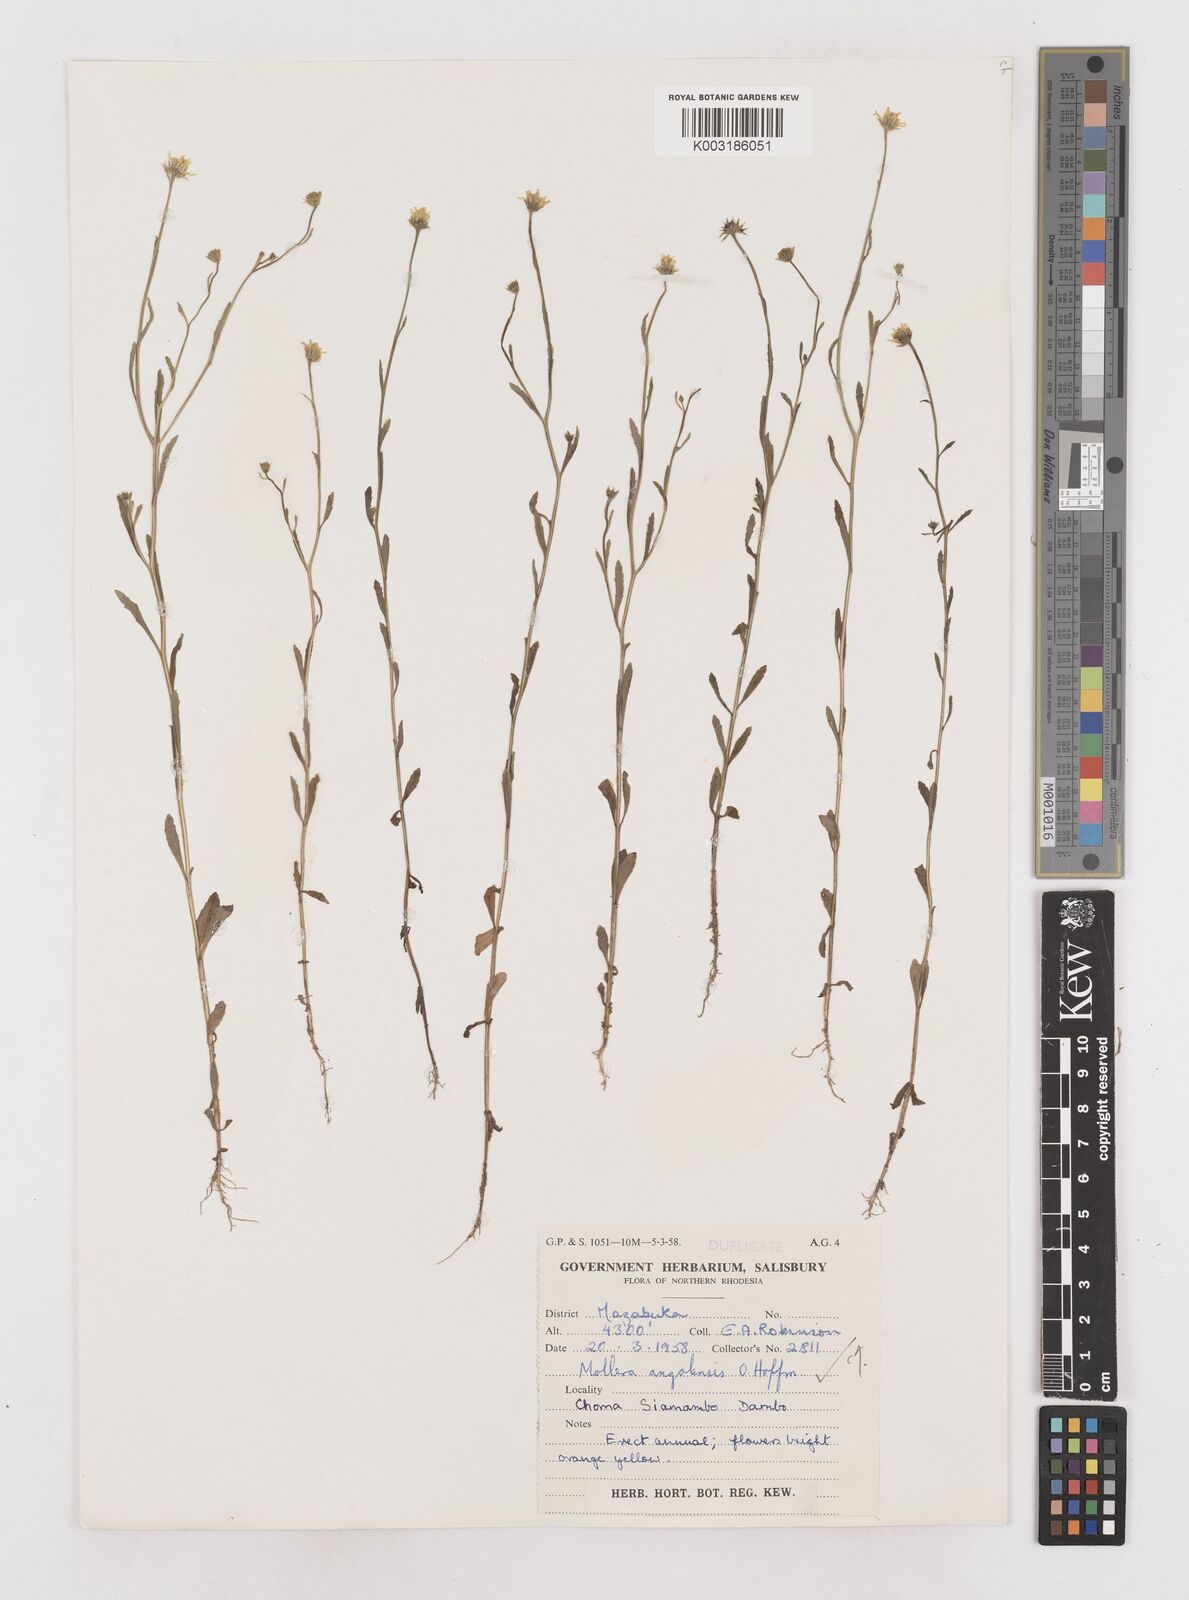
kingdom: Plantae
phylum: Tracheophyta
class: Magnoliopsida
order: Asterales
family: Asteraceae
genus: Calostephane
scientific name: Calostephane angolensis
